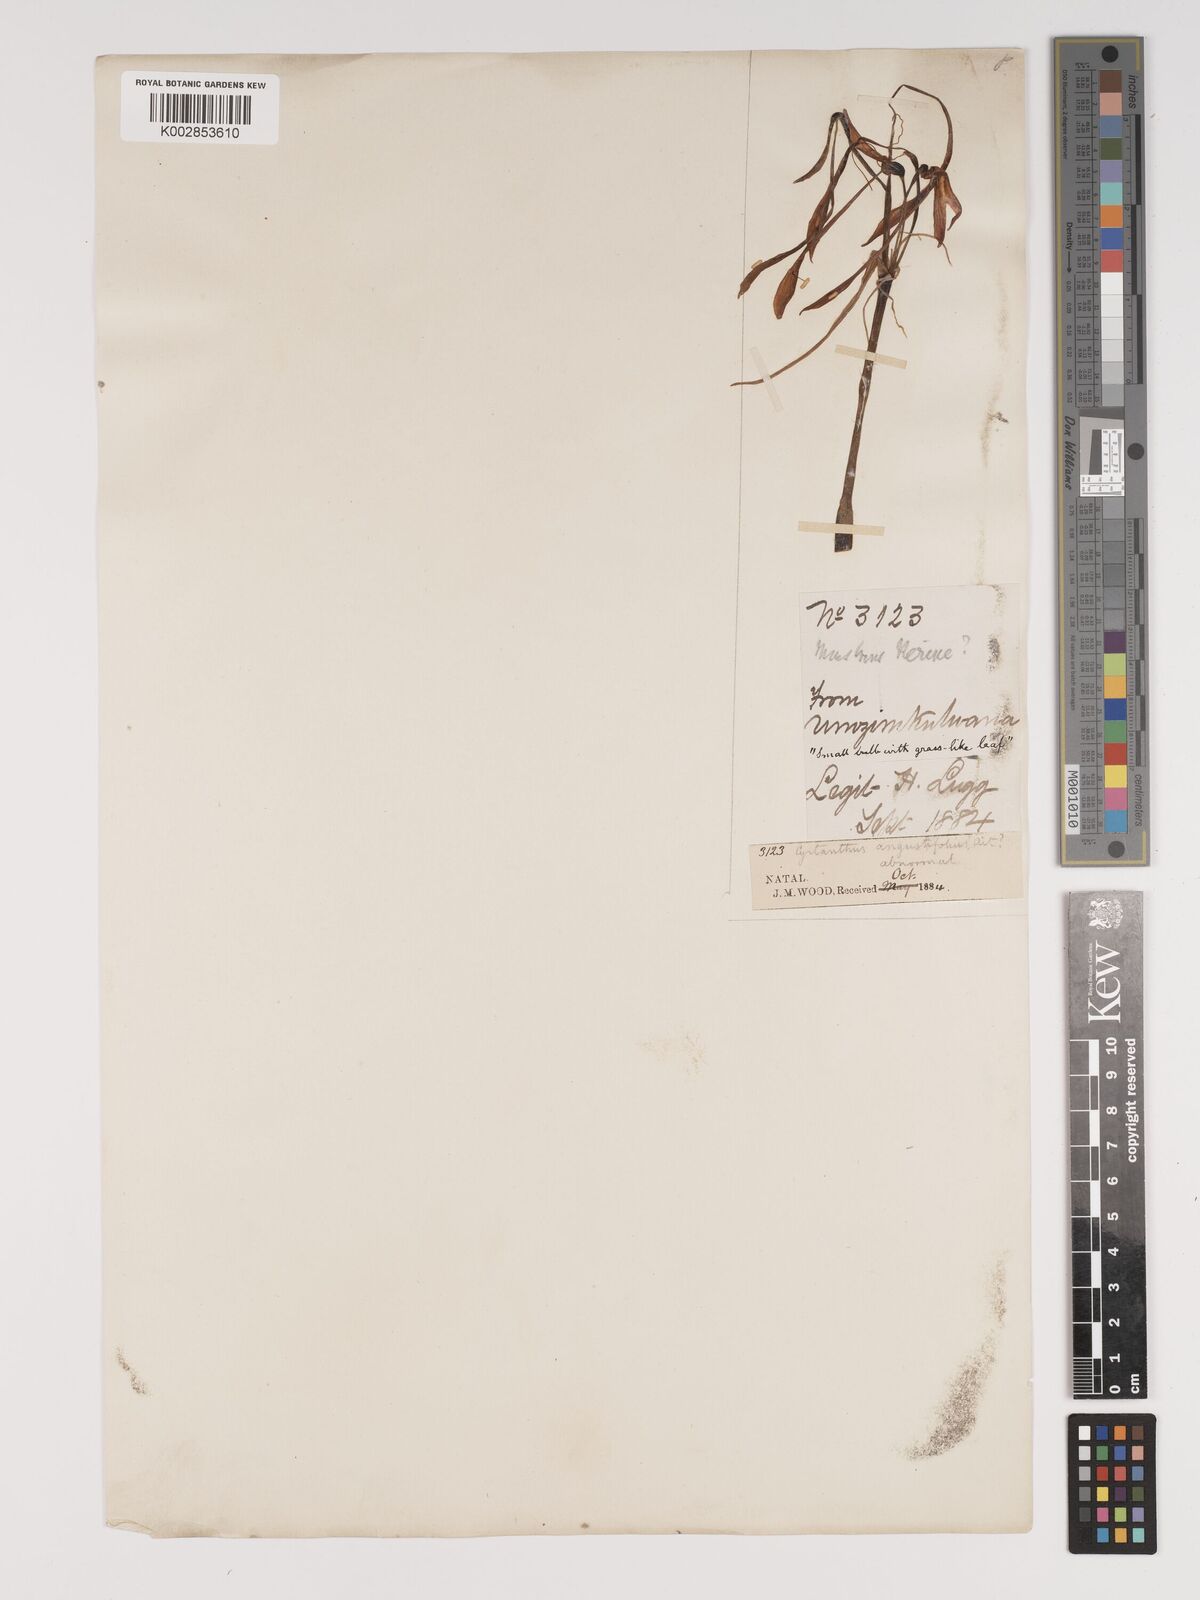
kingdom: Plantae
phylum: Tracheophyta
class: Liliopsida
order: Asparagales
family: Amaryllidaceae
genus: Cyrtanthus
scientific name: Cyrtanthus
